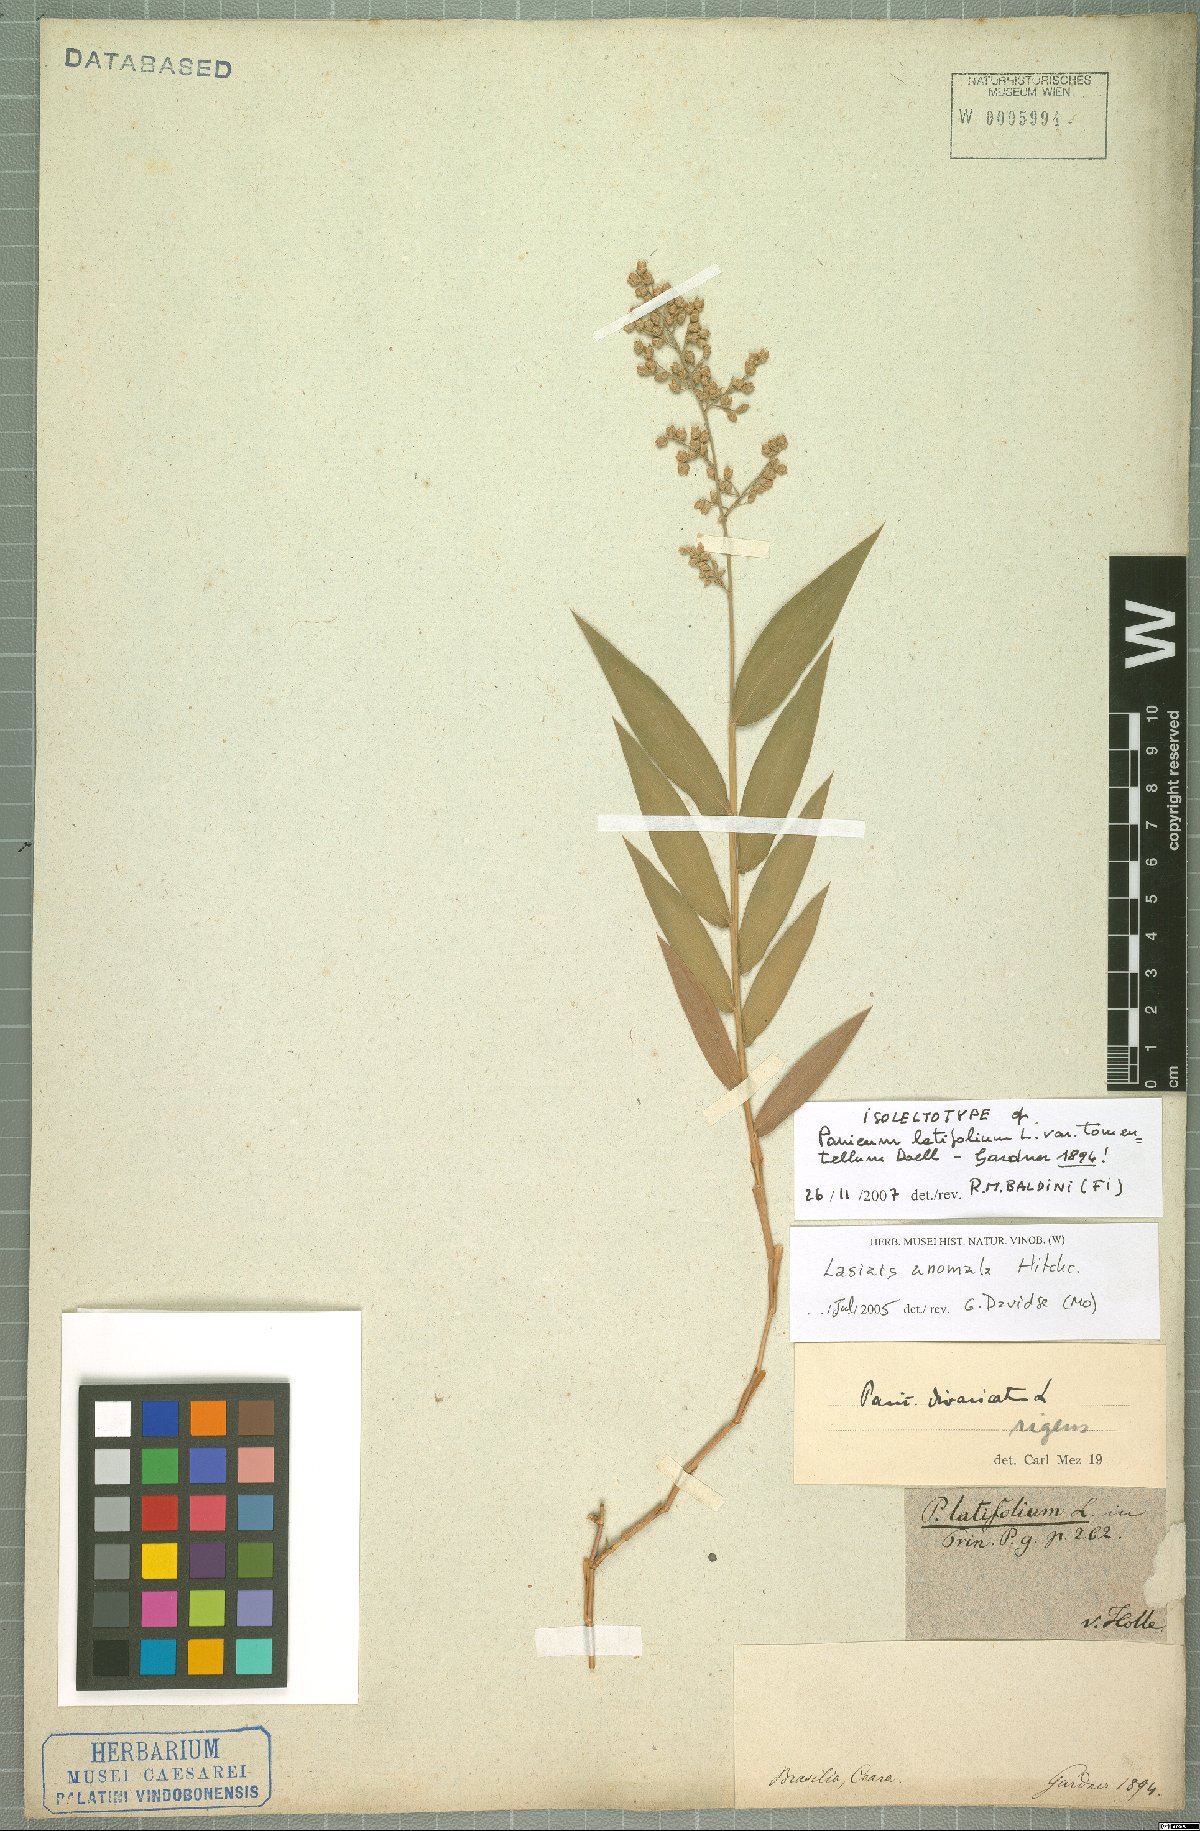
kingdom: Plantae
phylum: Tracheophyta
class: Liliopsida
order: Poales
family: Poaceae
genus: Lasiacis
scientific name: Lasiacis anomala
